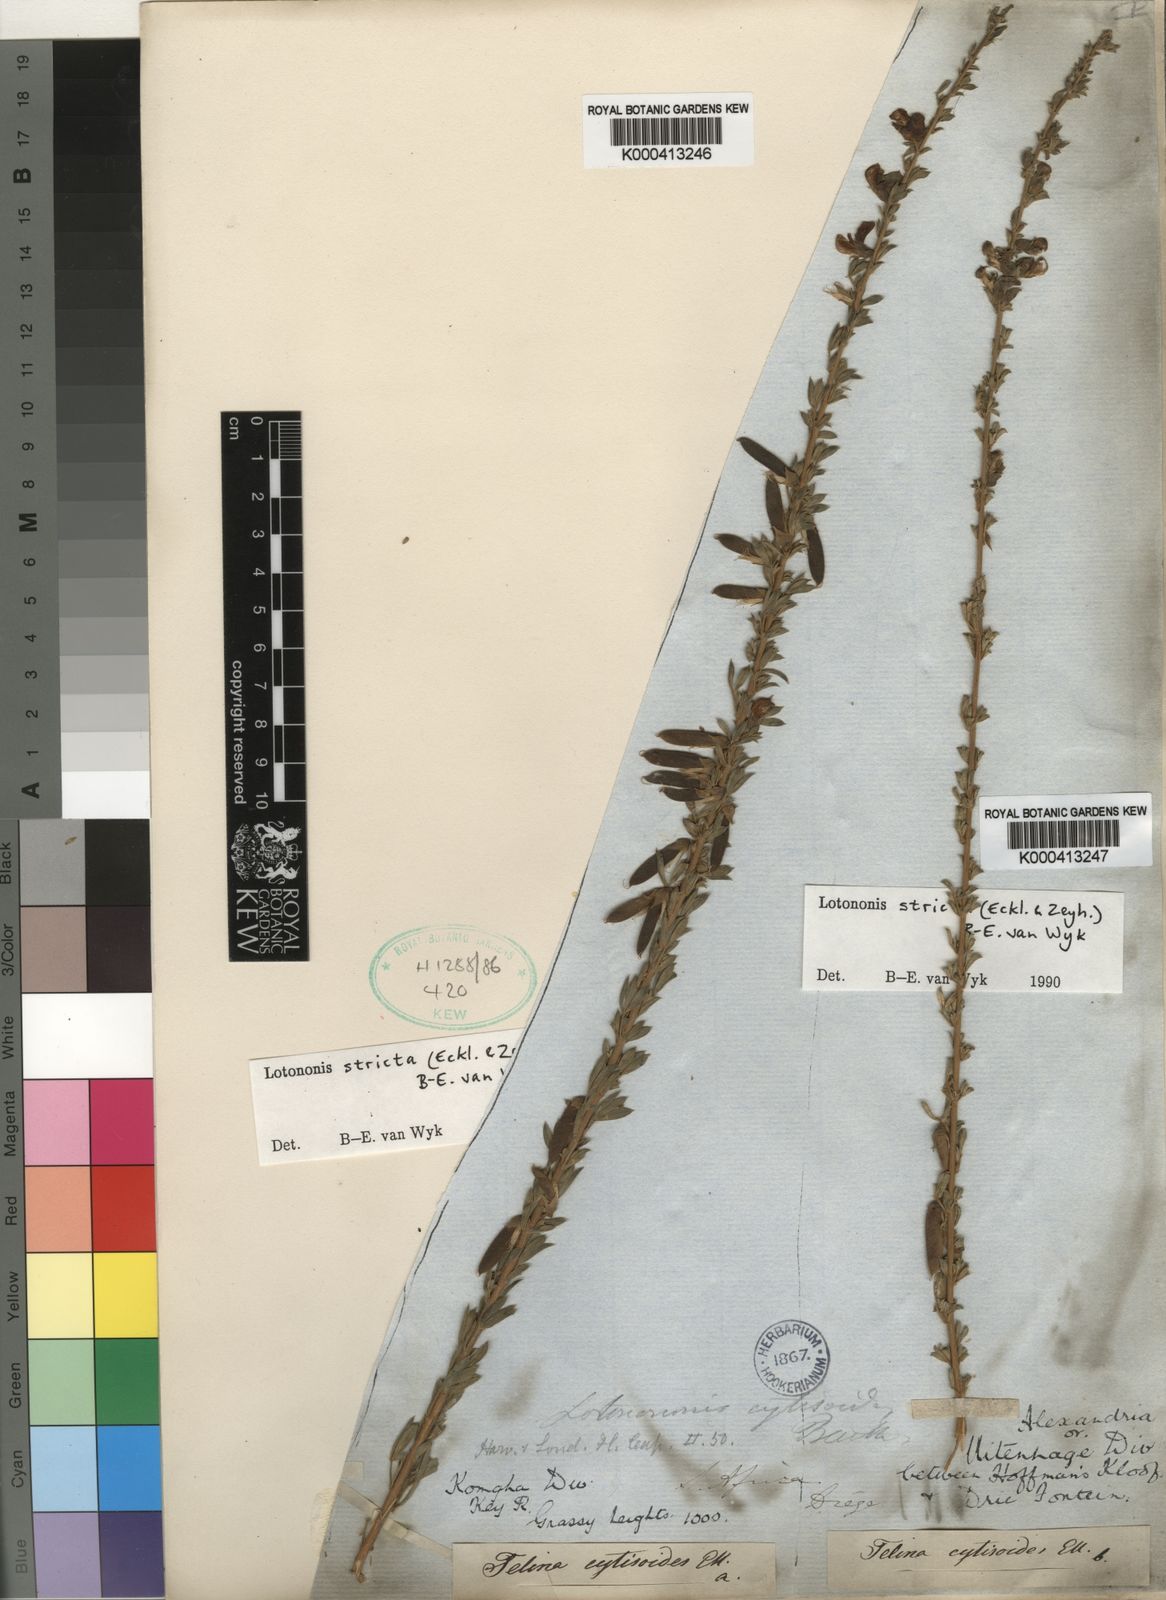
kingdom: Plantae
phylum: Tracheophyta
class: Magnoliopsida
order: Fabales
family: Fabaceae
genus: Lotononis
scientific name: Lotononis stricta
